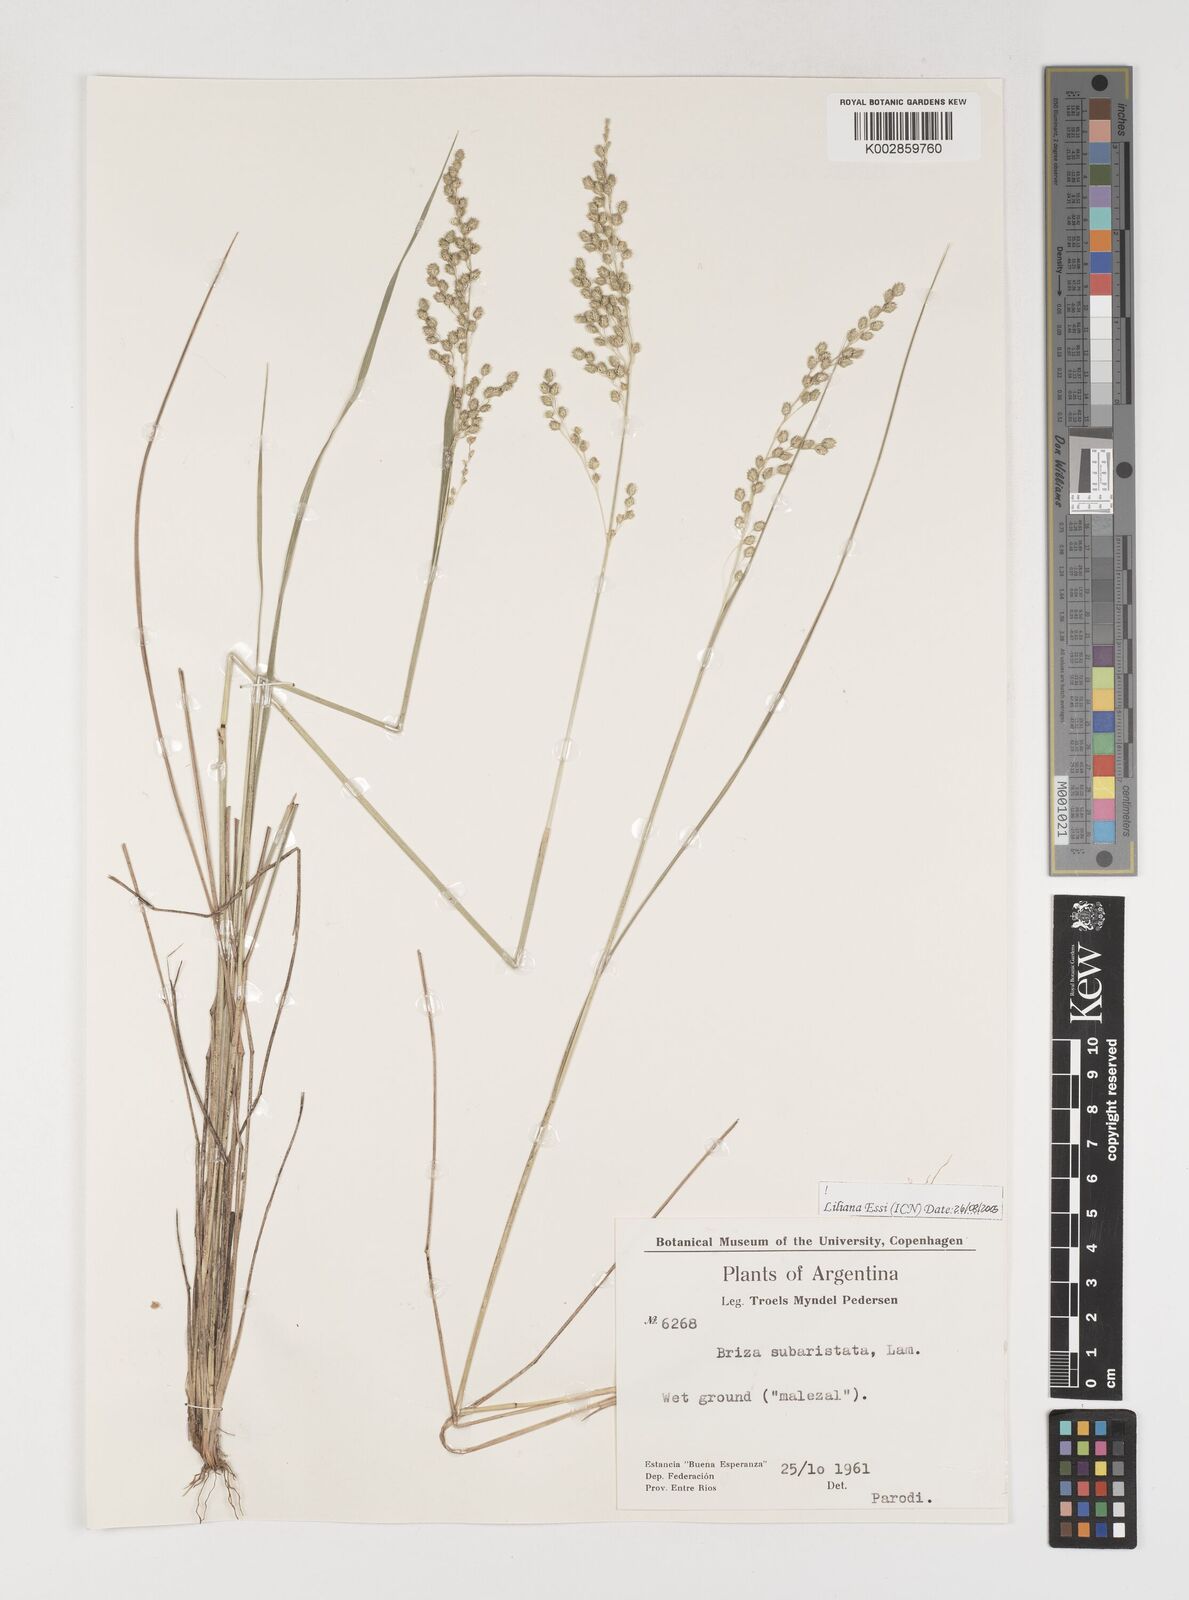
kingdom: Plantae
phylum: Tracheophyta
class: Liliopsida
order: Poales
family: Poaceae
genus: Chascolytrum
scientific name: Chascolytrum subaristatum
